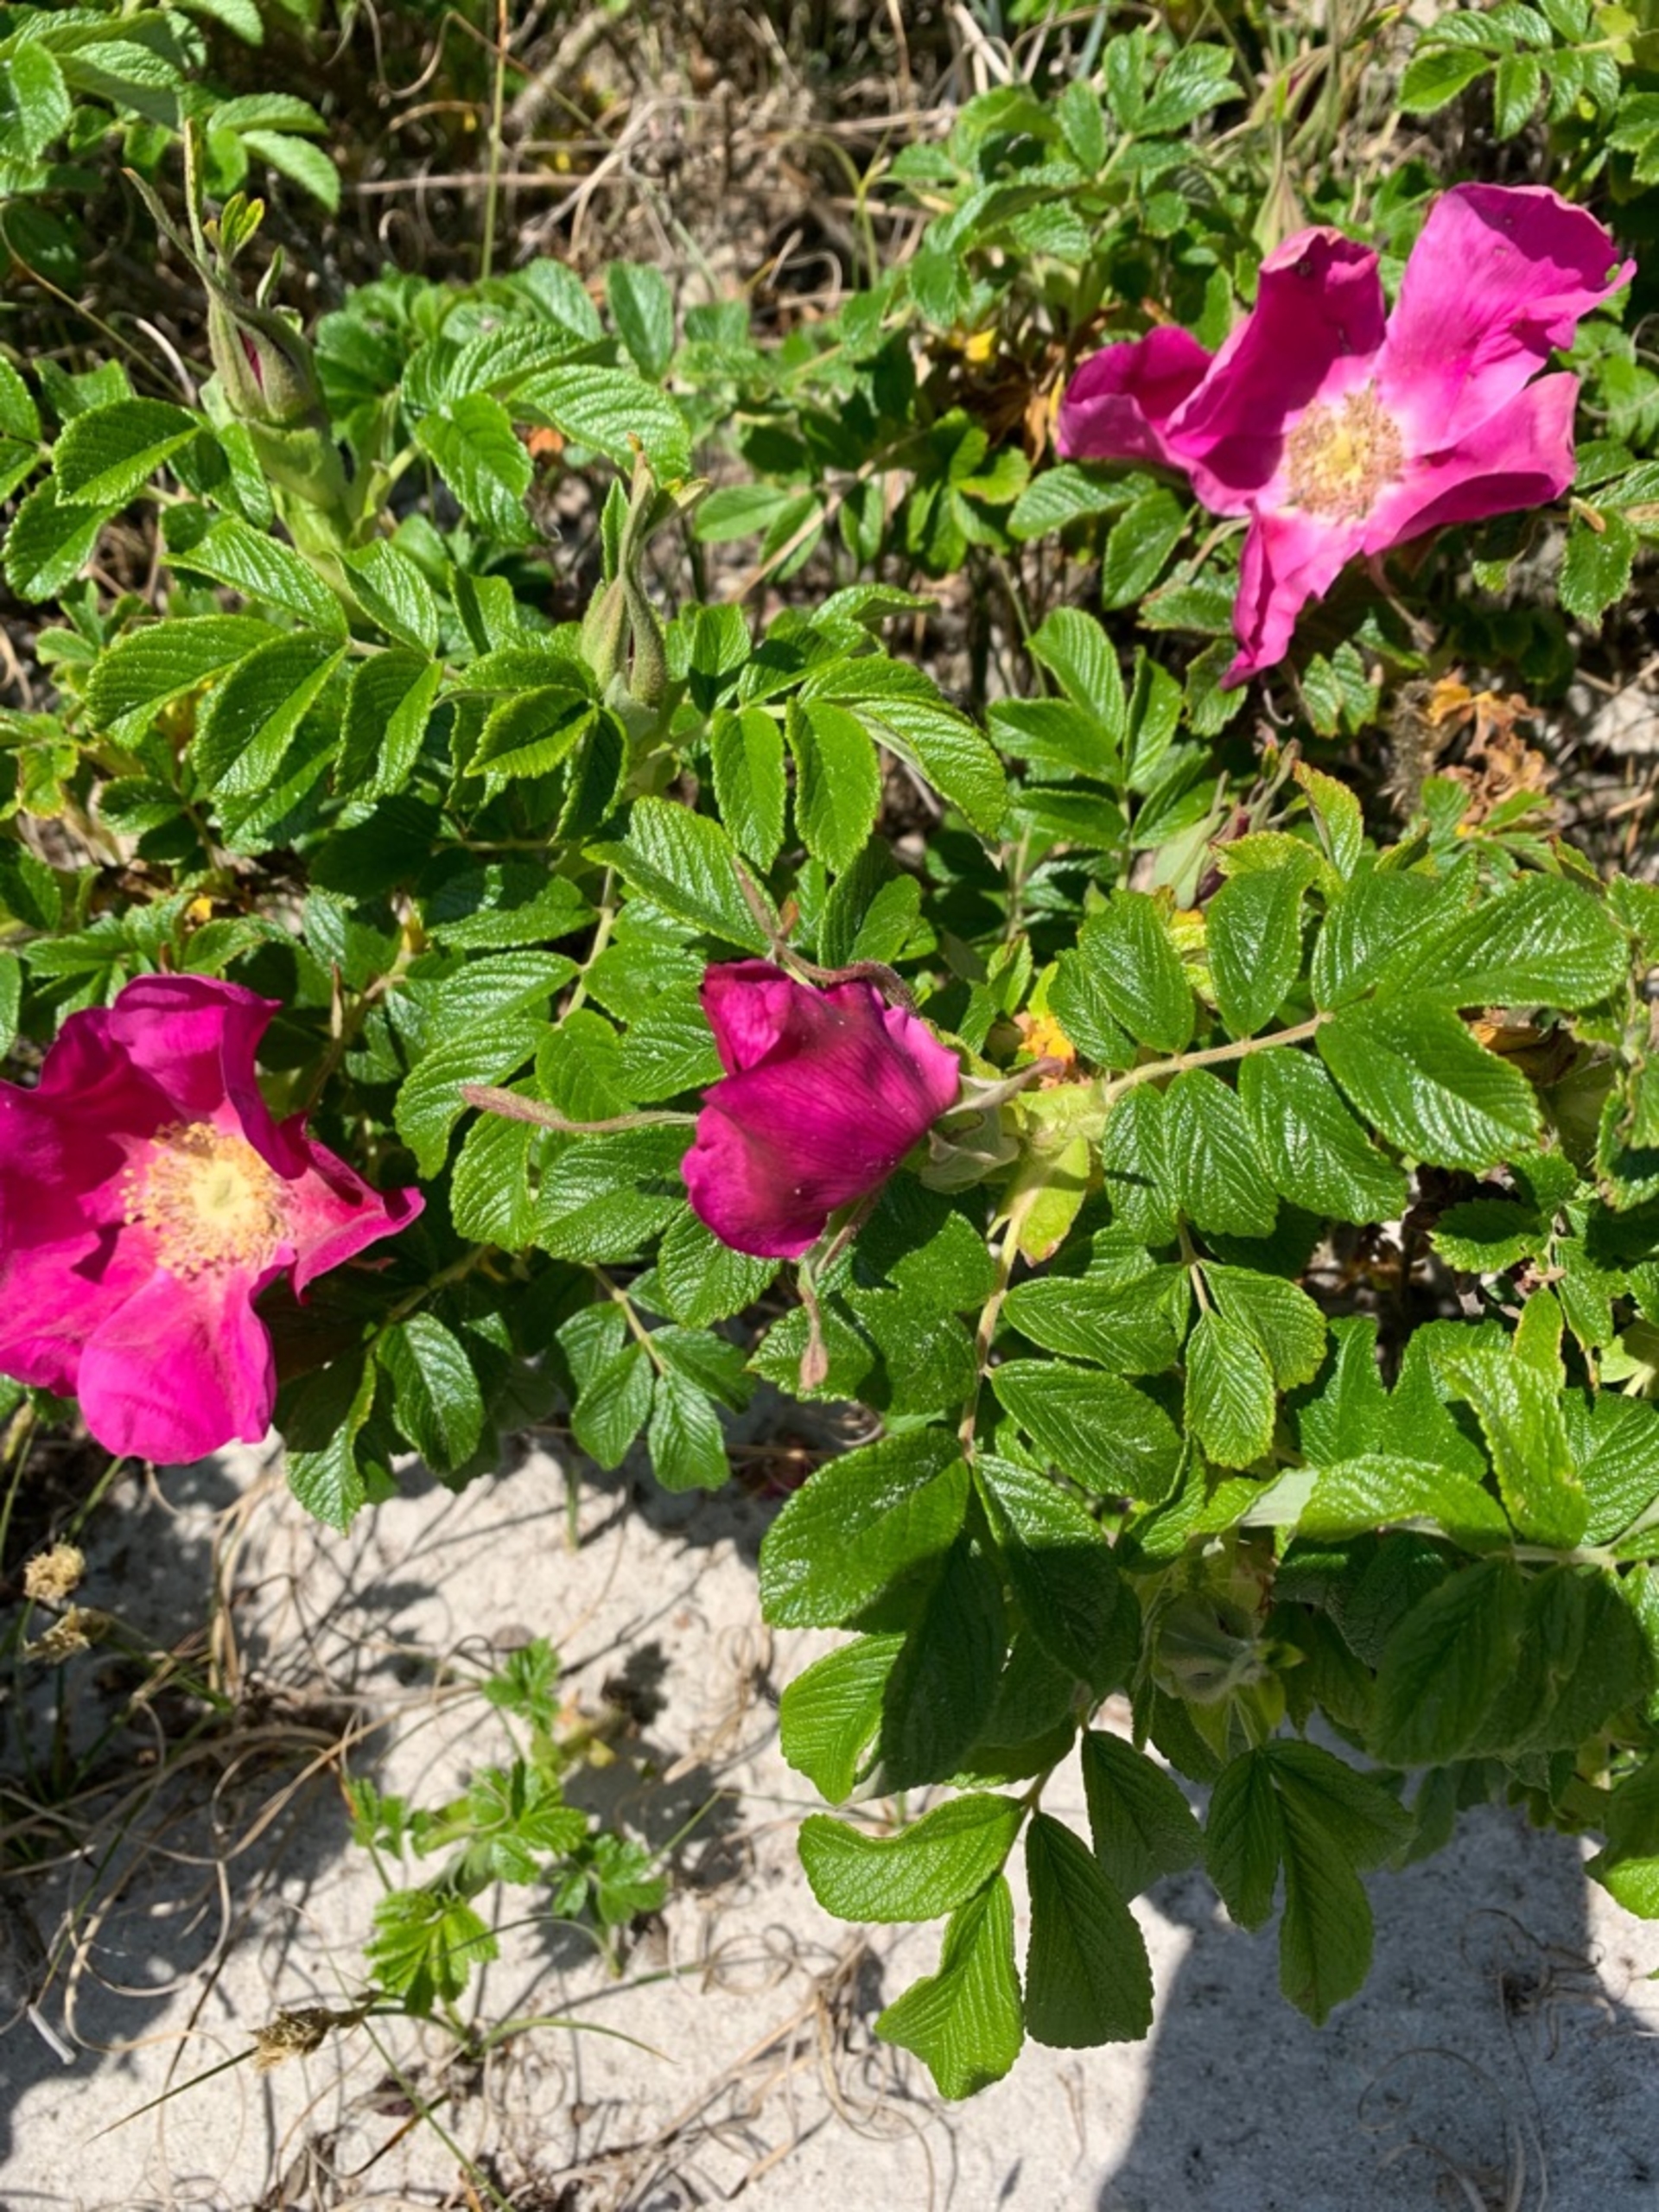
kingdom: Plantae
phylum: Tracheophyta
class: Magnoliopsida
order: Rosales
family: Rosaceae
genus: Rosa
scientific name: Rosa rugosa
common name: Rynket rose
